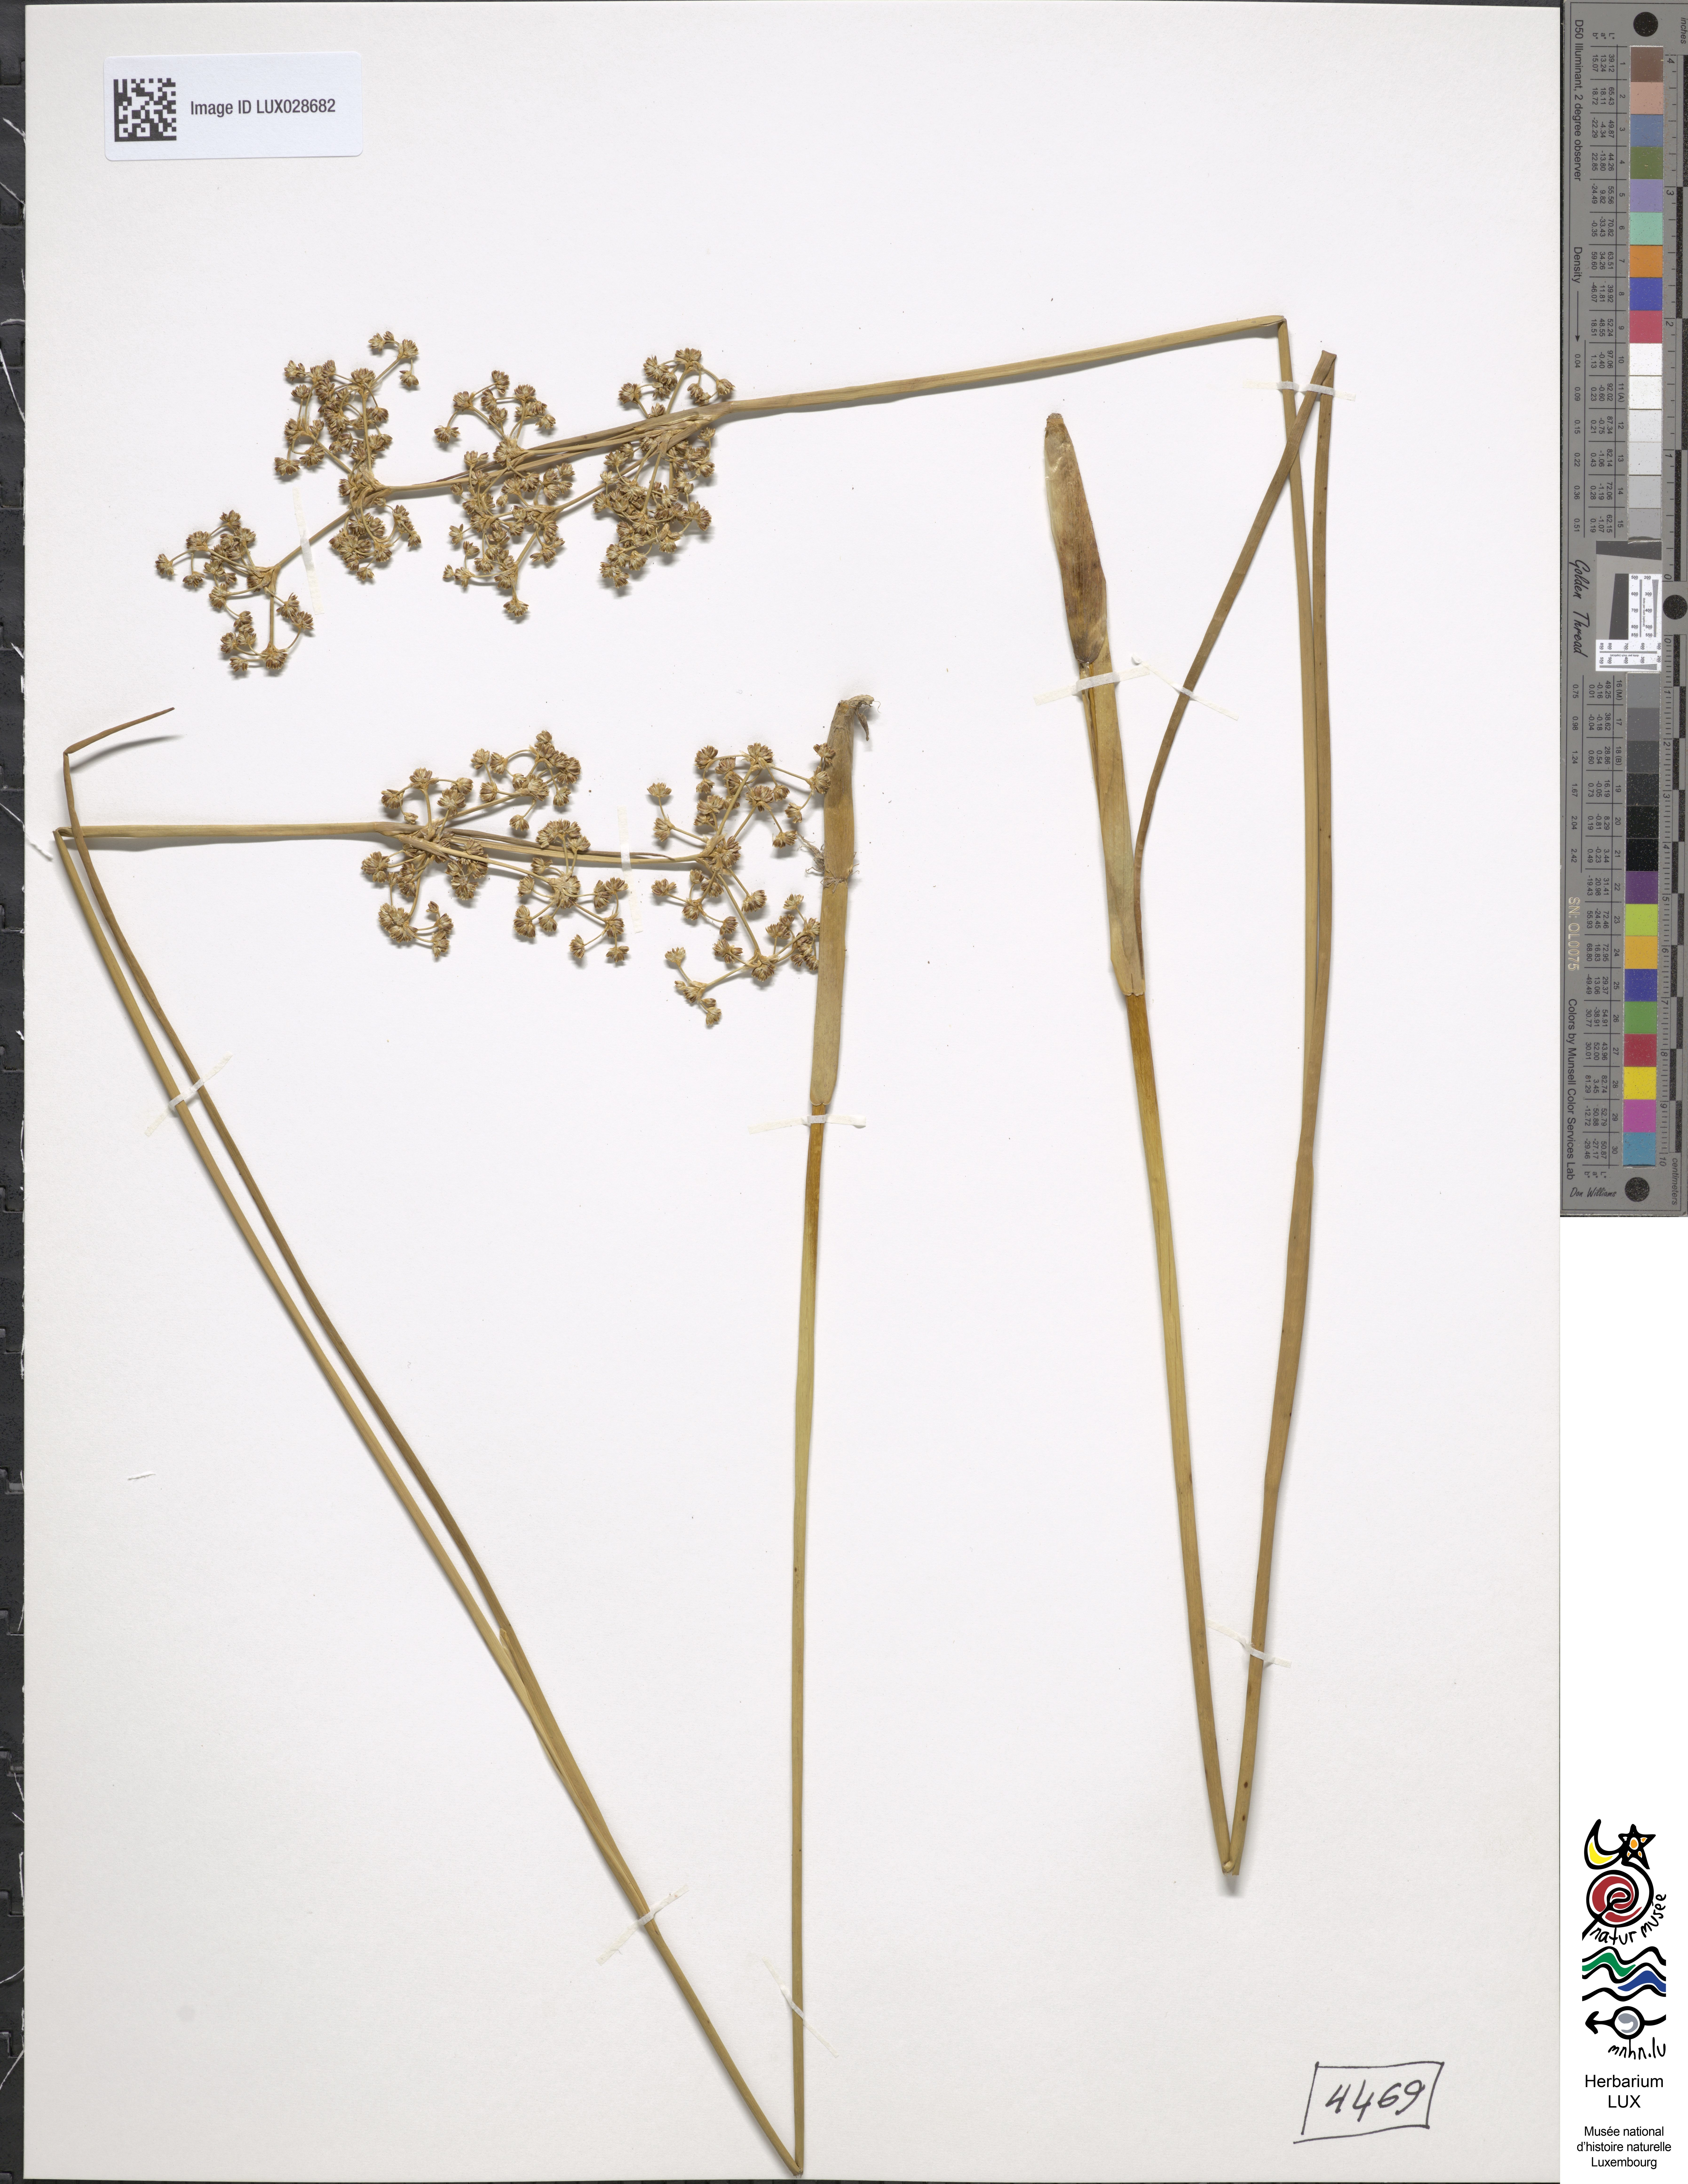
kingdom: Plantae
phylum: Tracheophyta
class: Liliopsida
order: Poales
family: Juncaceae
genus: Juncus
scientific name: Juncus subnodulosus
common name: Blunt-flowered rush
